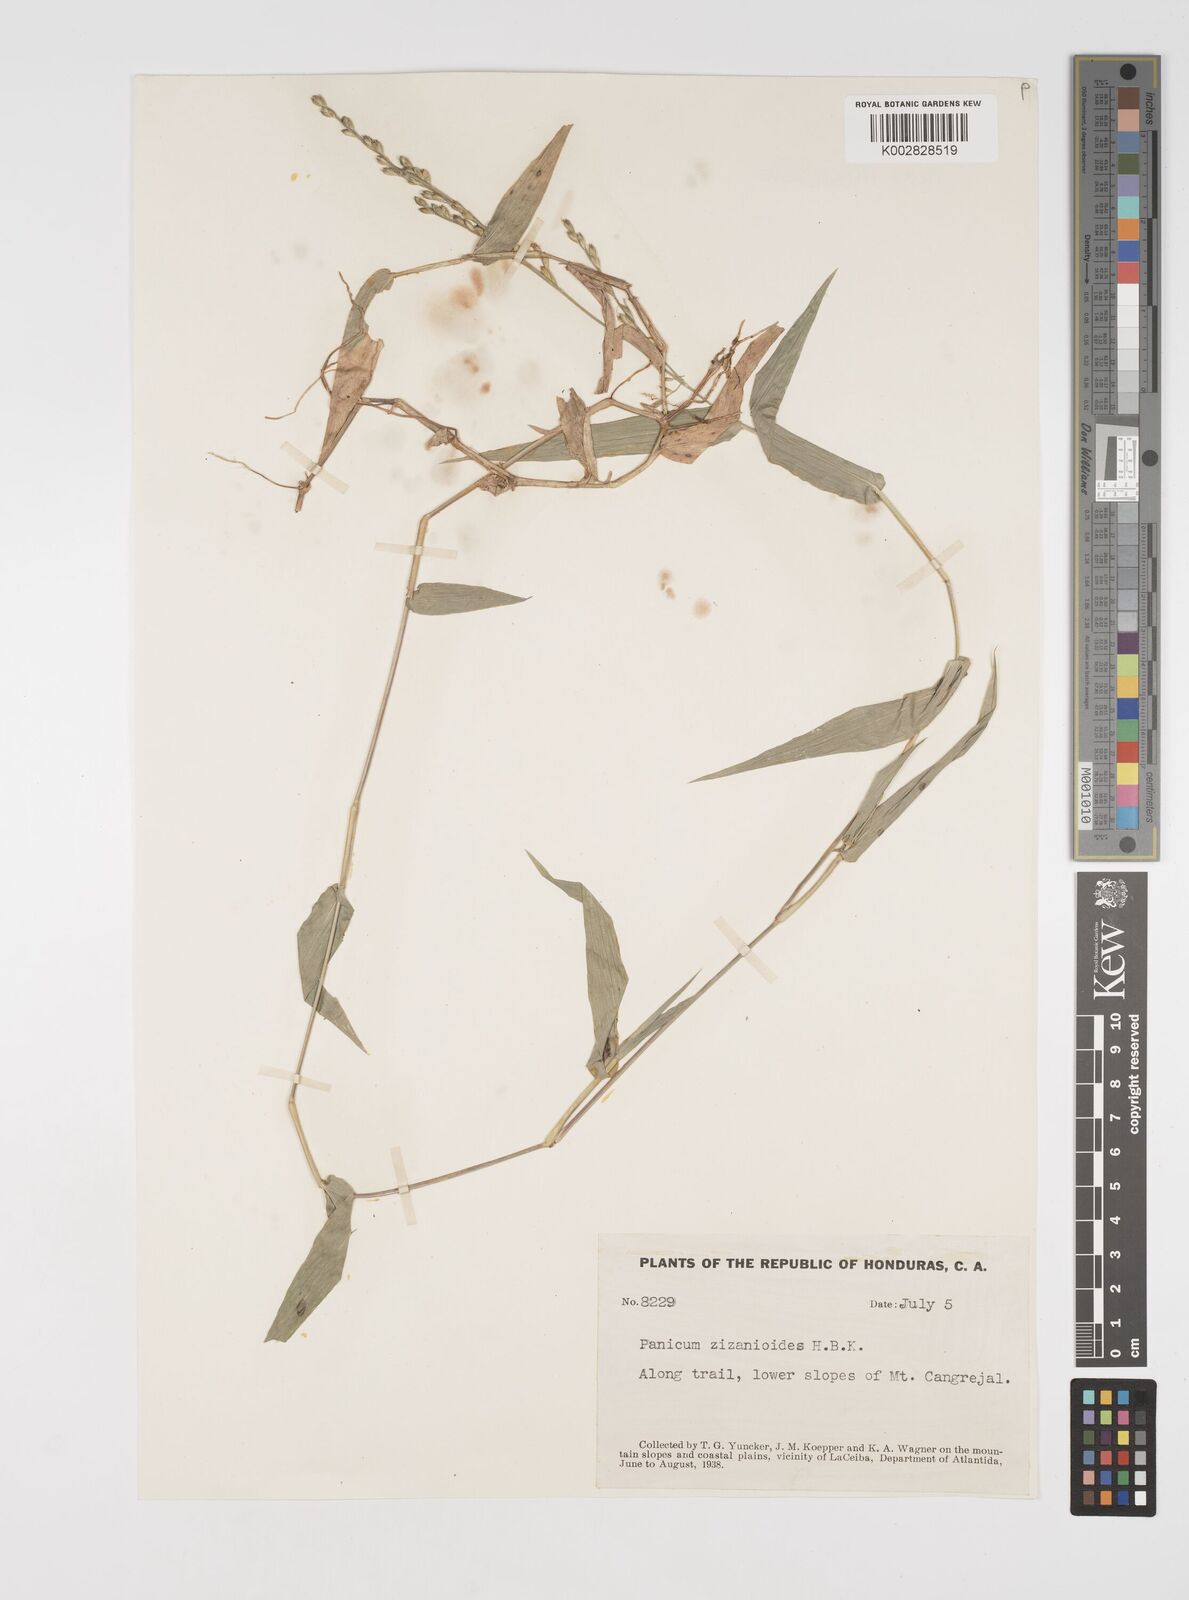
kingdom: Plantae
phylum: Tracheophyta
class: Liliopsida
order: Poales
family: Poaceae
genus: Acroceras
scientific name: Acroceras zizanioides
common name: Oat grass
